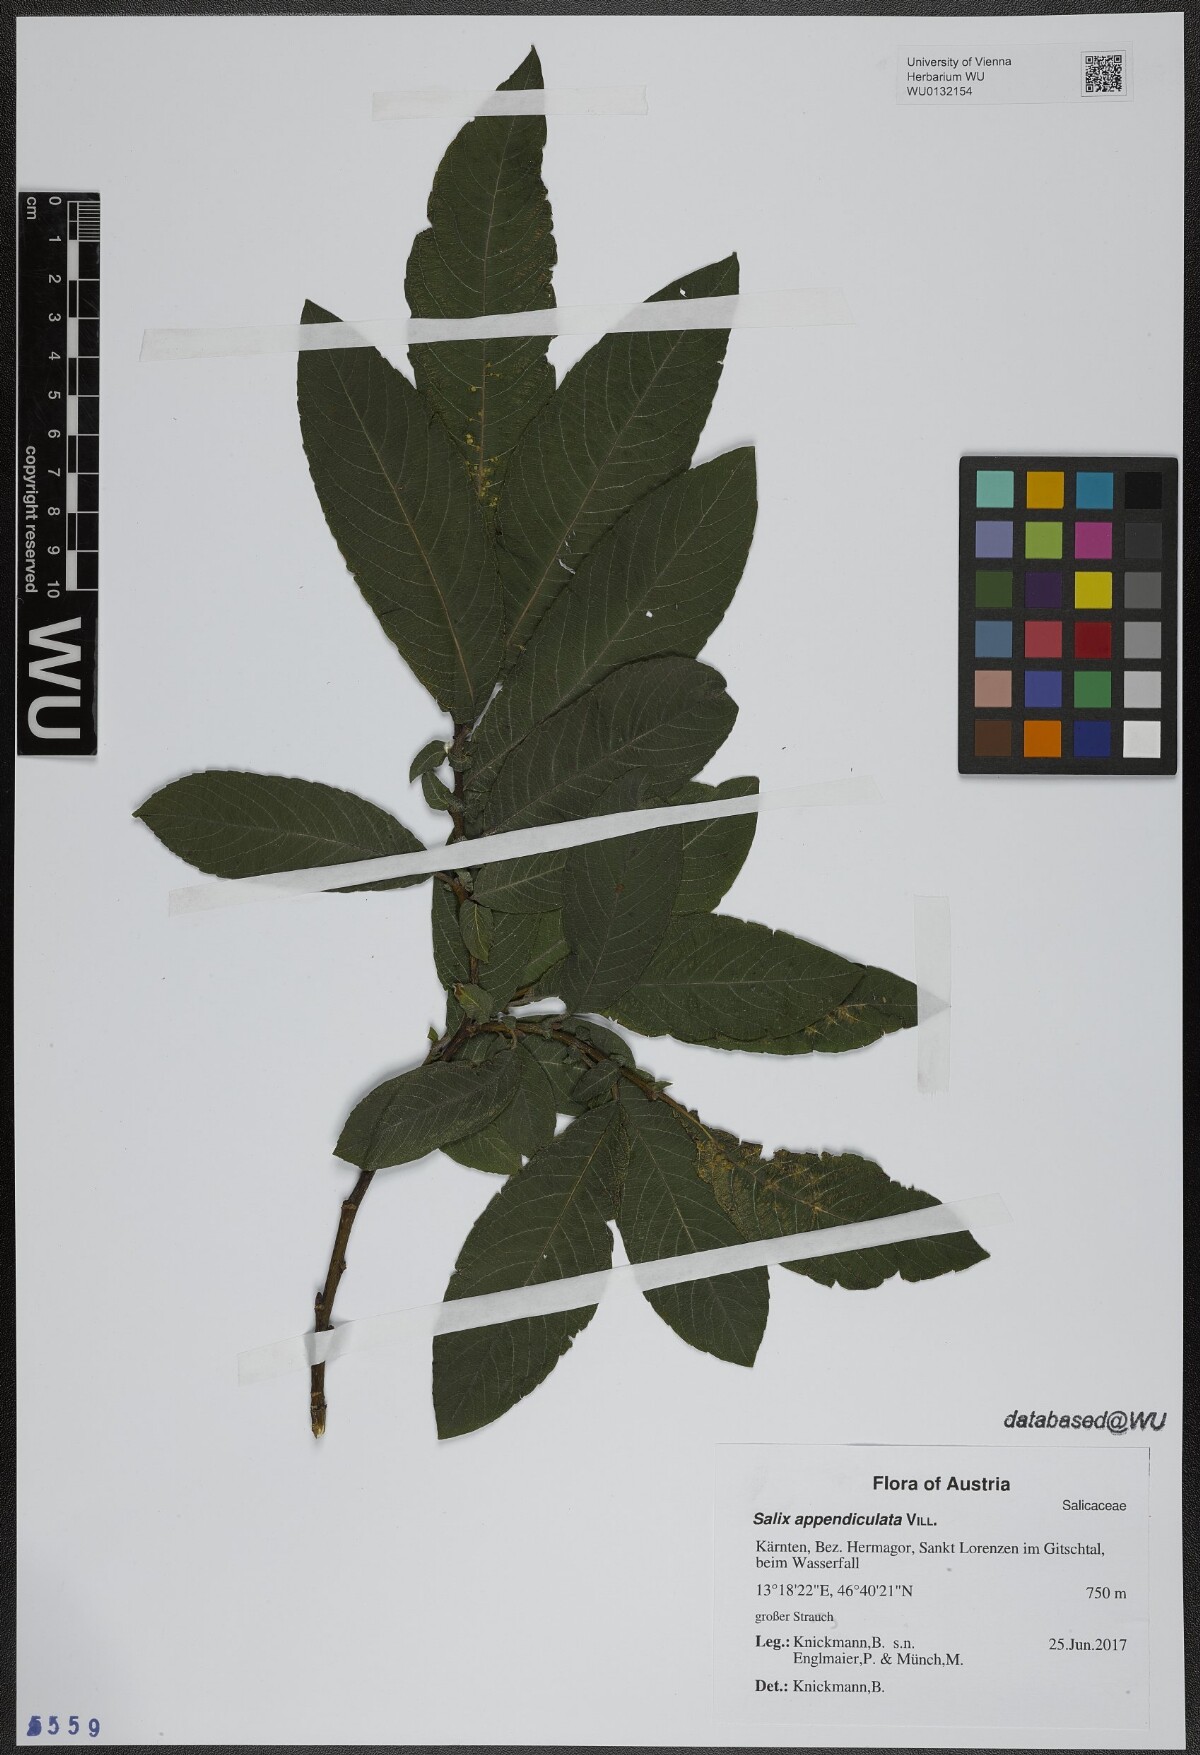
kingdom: Plantae
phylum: Tracheophyta
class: Magnoliopsida
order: Malpighiales
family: Salicaceae
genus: Salix
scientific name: Salix appendiculata
